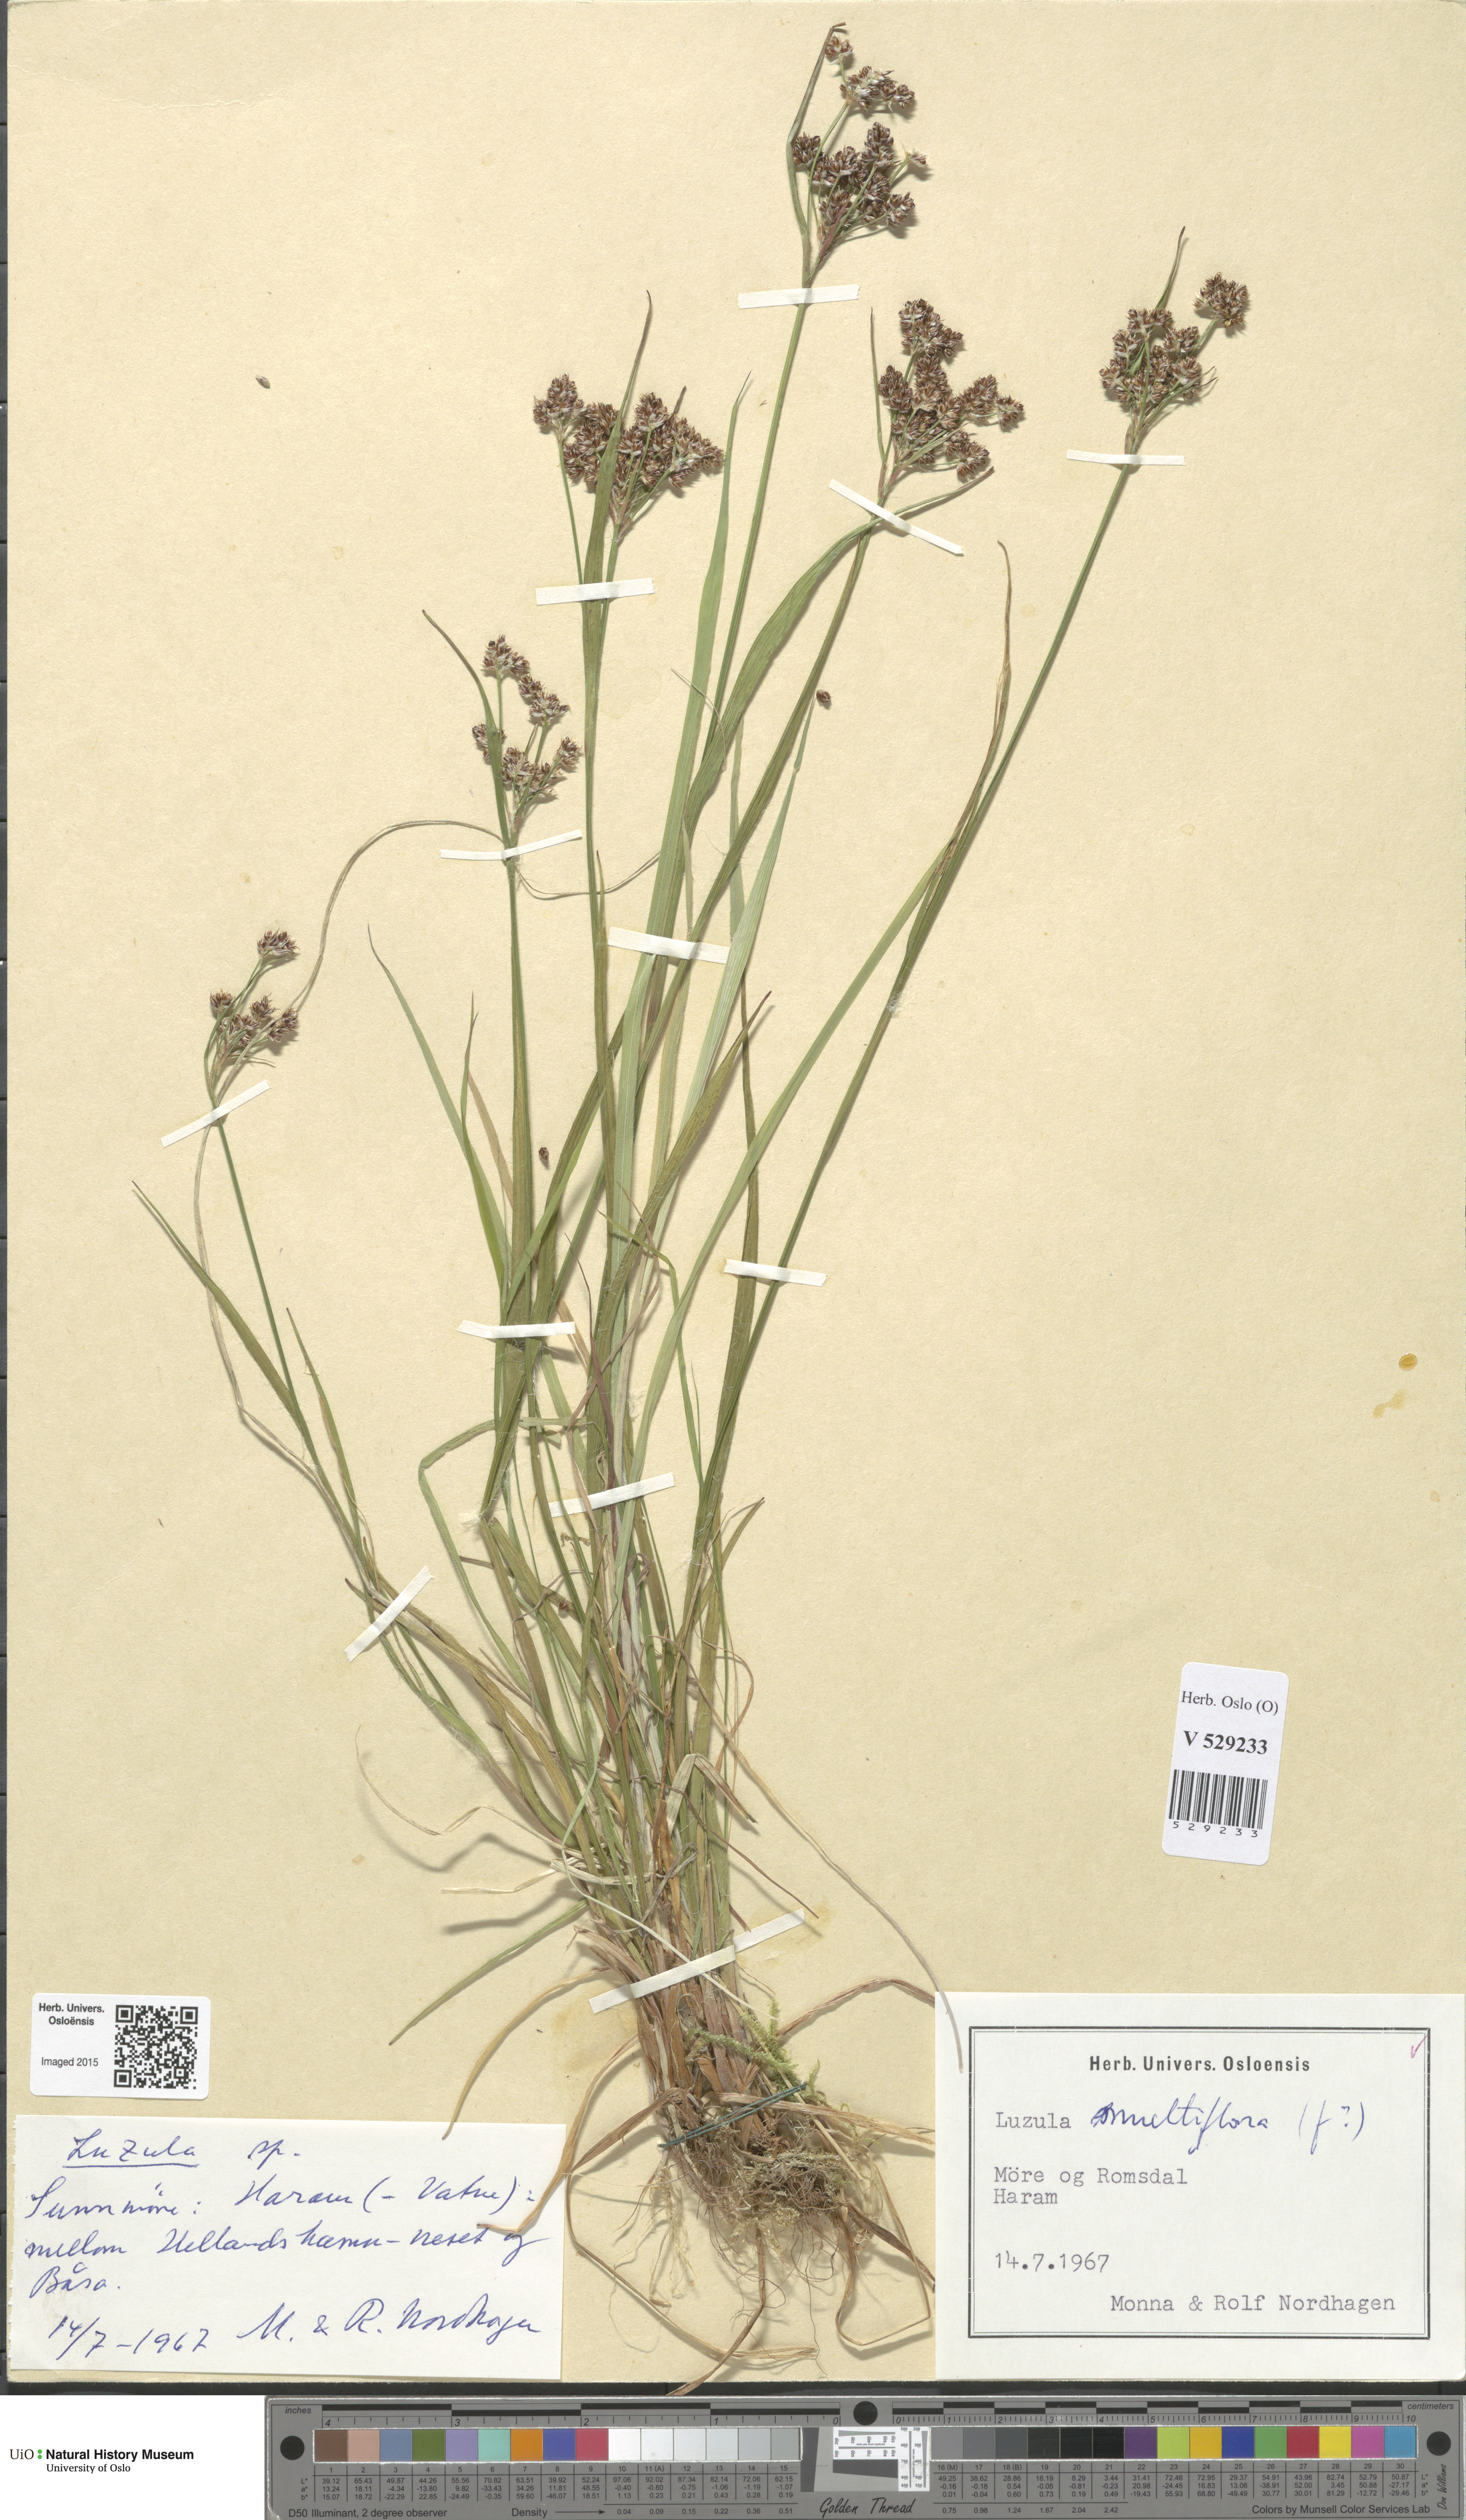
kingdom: Plantae
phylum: Tracheophyta
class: Liliopsida
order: Poales
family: Juncaceae
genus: Luzula
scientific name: Luzula multiflora
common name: Heath wood-rush
